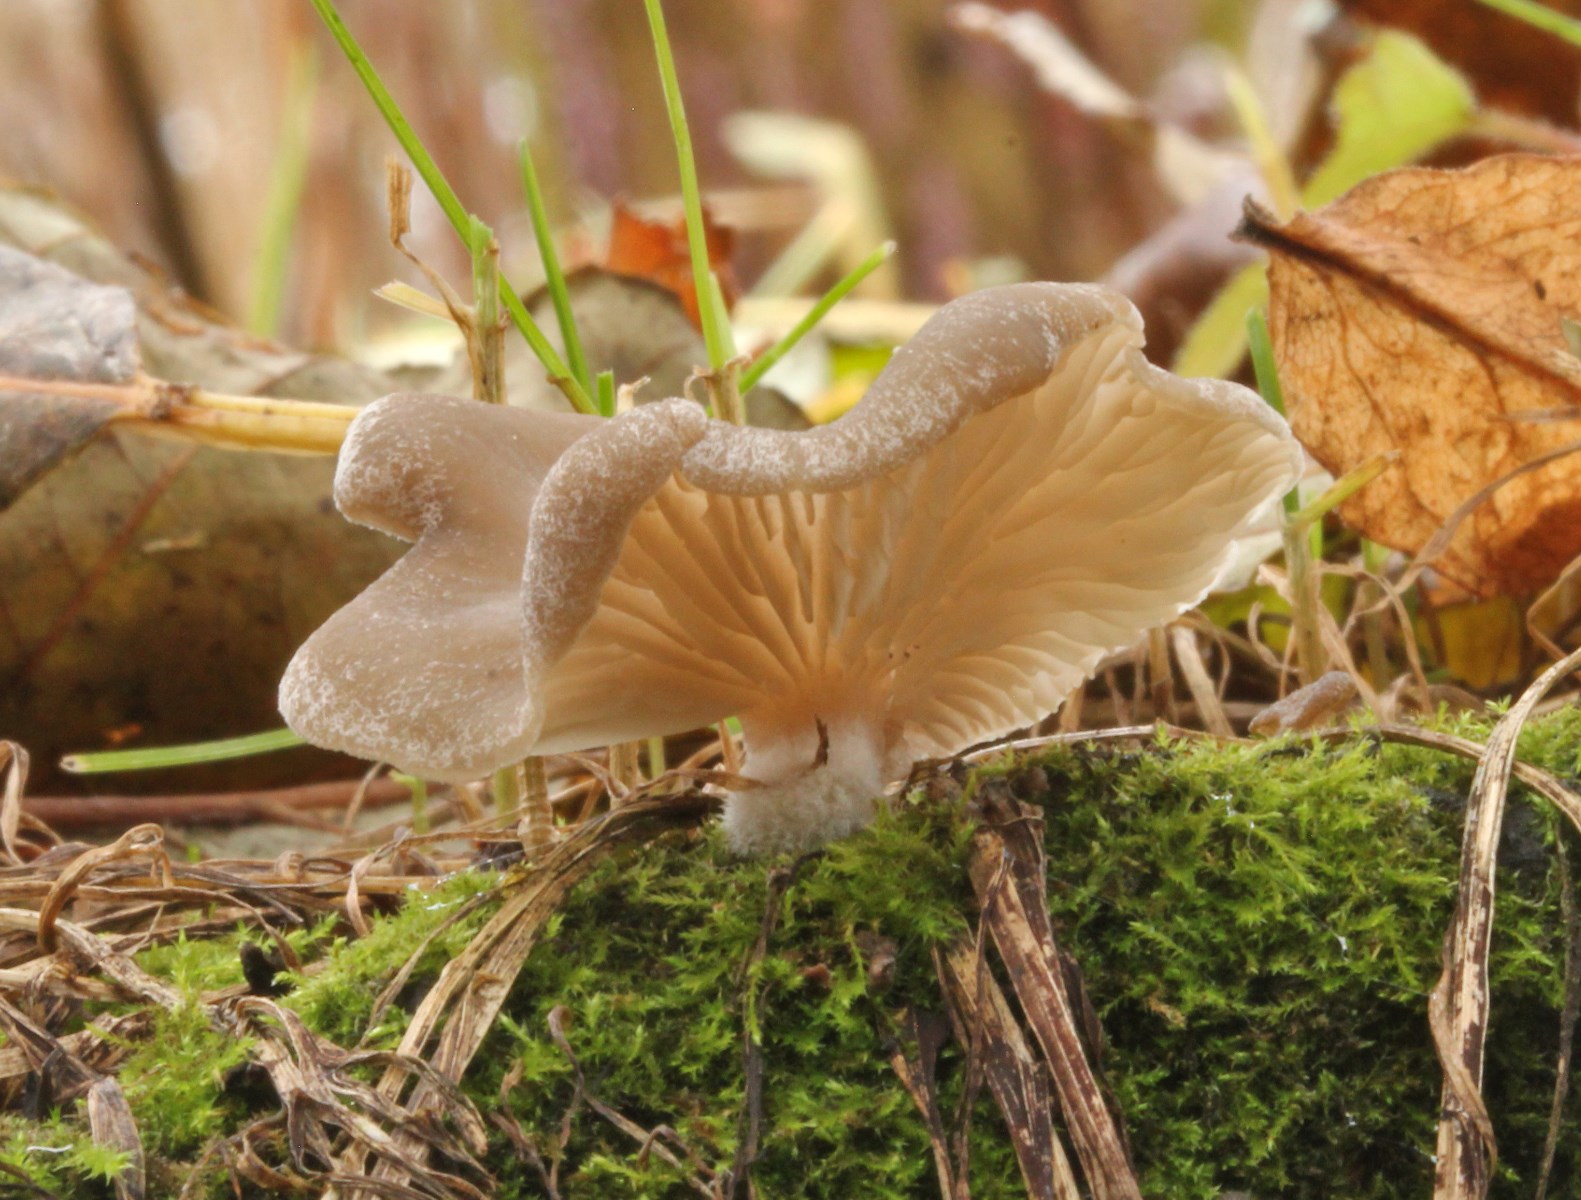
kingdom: Fungi
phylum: Basidiomycota
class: Agaricomycetes
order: Agaricales
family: Hygrophoraceae
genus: Arrhenia
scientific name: Arrhenia acerosa
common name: muslinge-fontænehat
